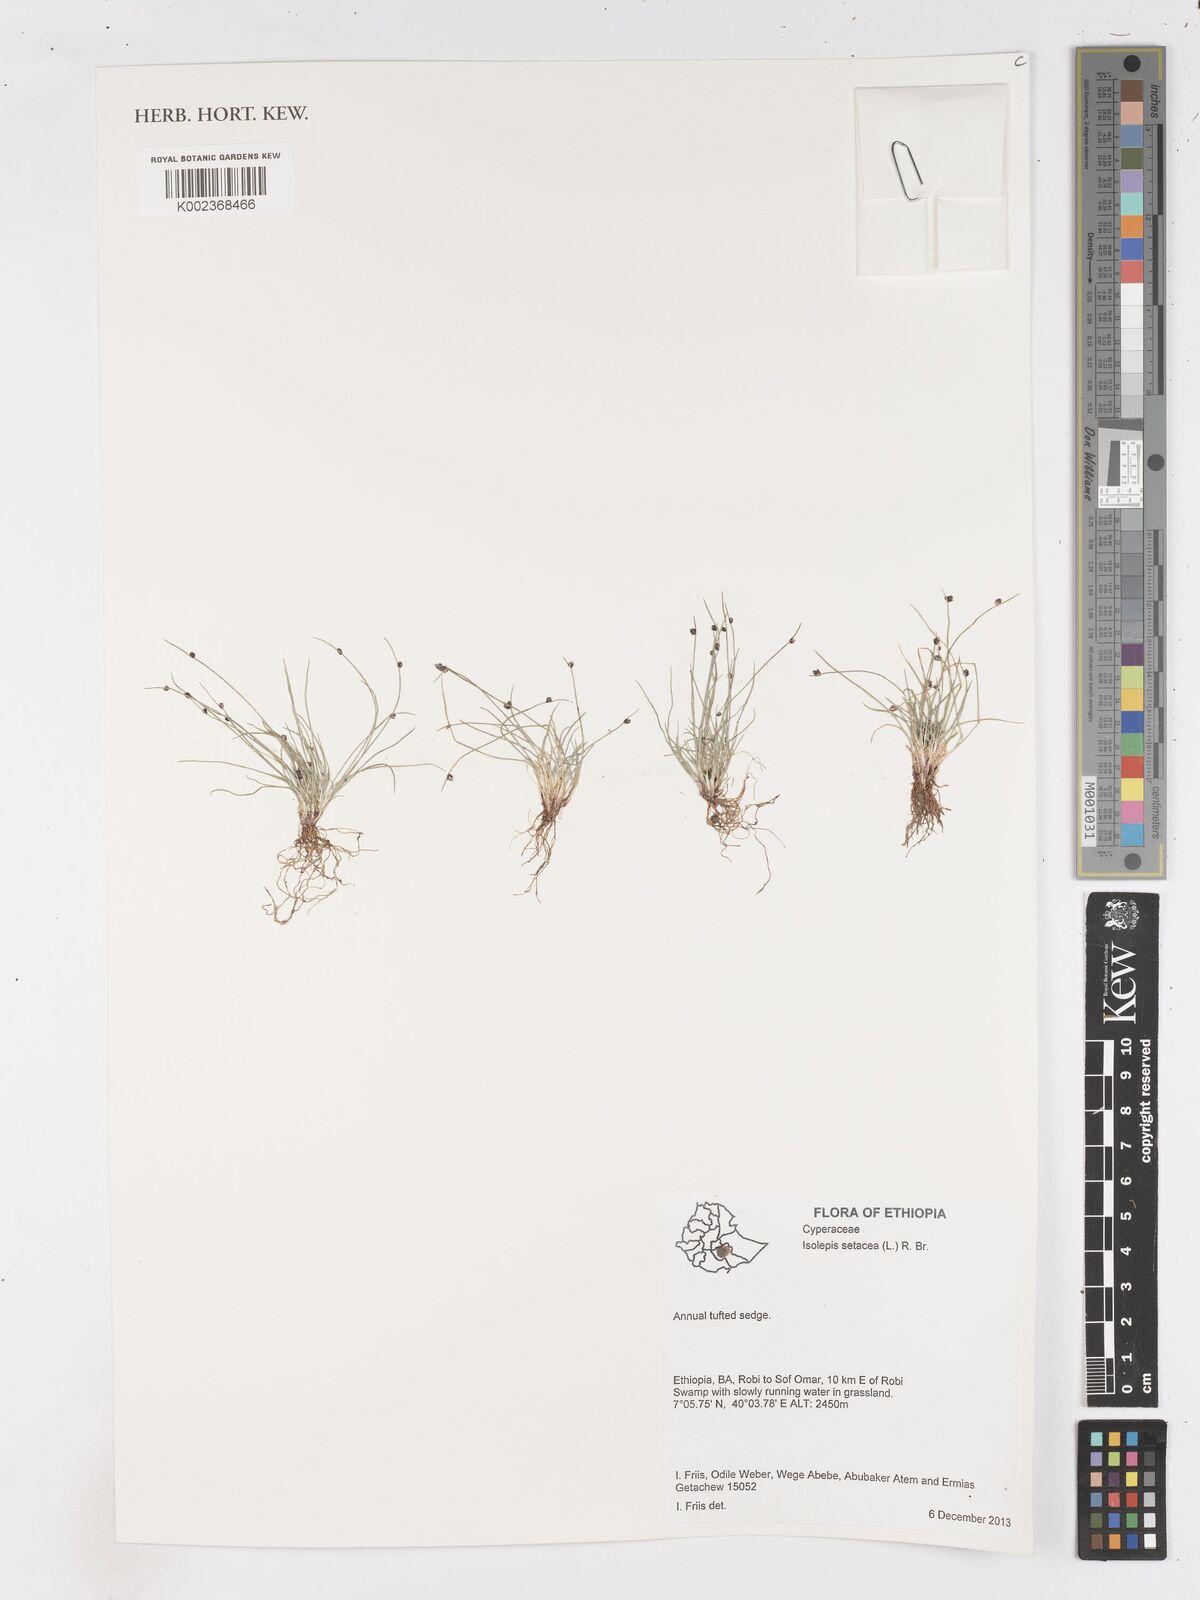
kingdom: Plantae
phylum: Tracheophyta
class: Liliopsida
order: Poales
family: Cyperaceae
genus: Isolepis
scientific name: Isolepis setacea
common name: Bristle club-rush
